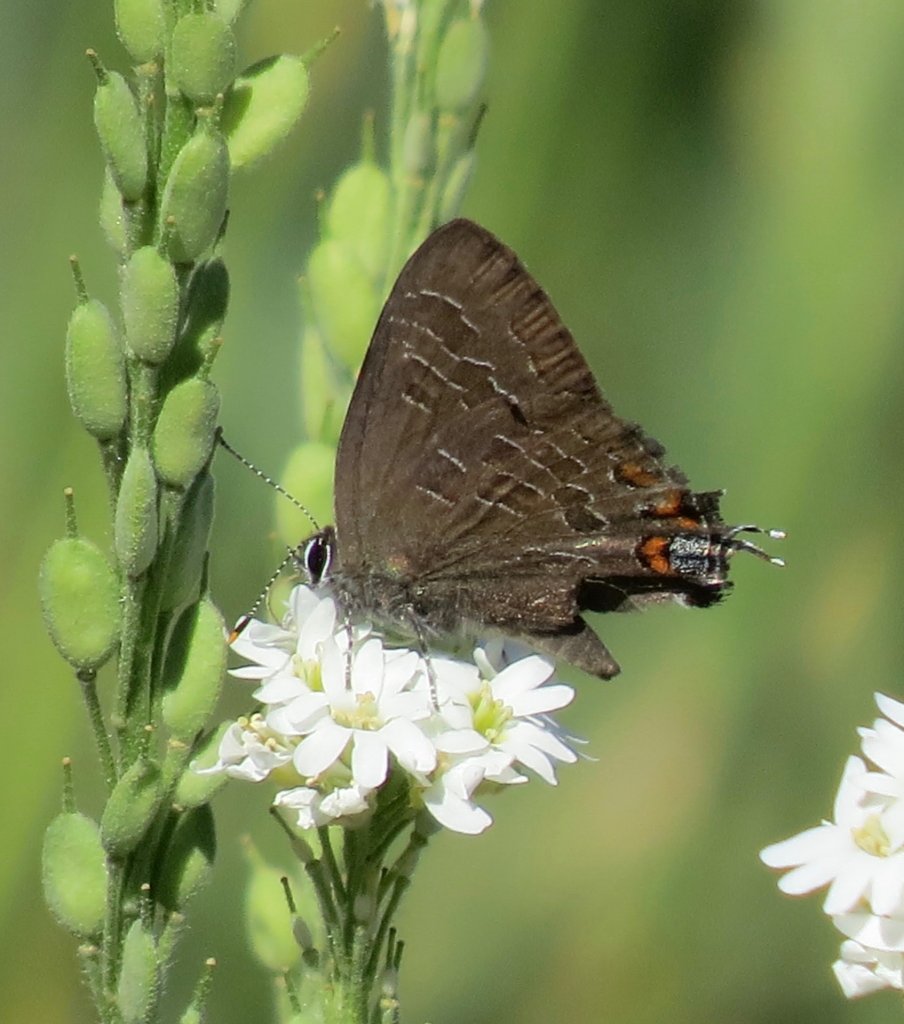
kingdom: Animalia
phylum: Arthropoda
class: Insecta
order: Lepidoptera
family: Lycaenidae
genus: Satyrium
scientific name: Satyrium liparops
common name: Striped Hairstreak
